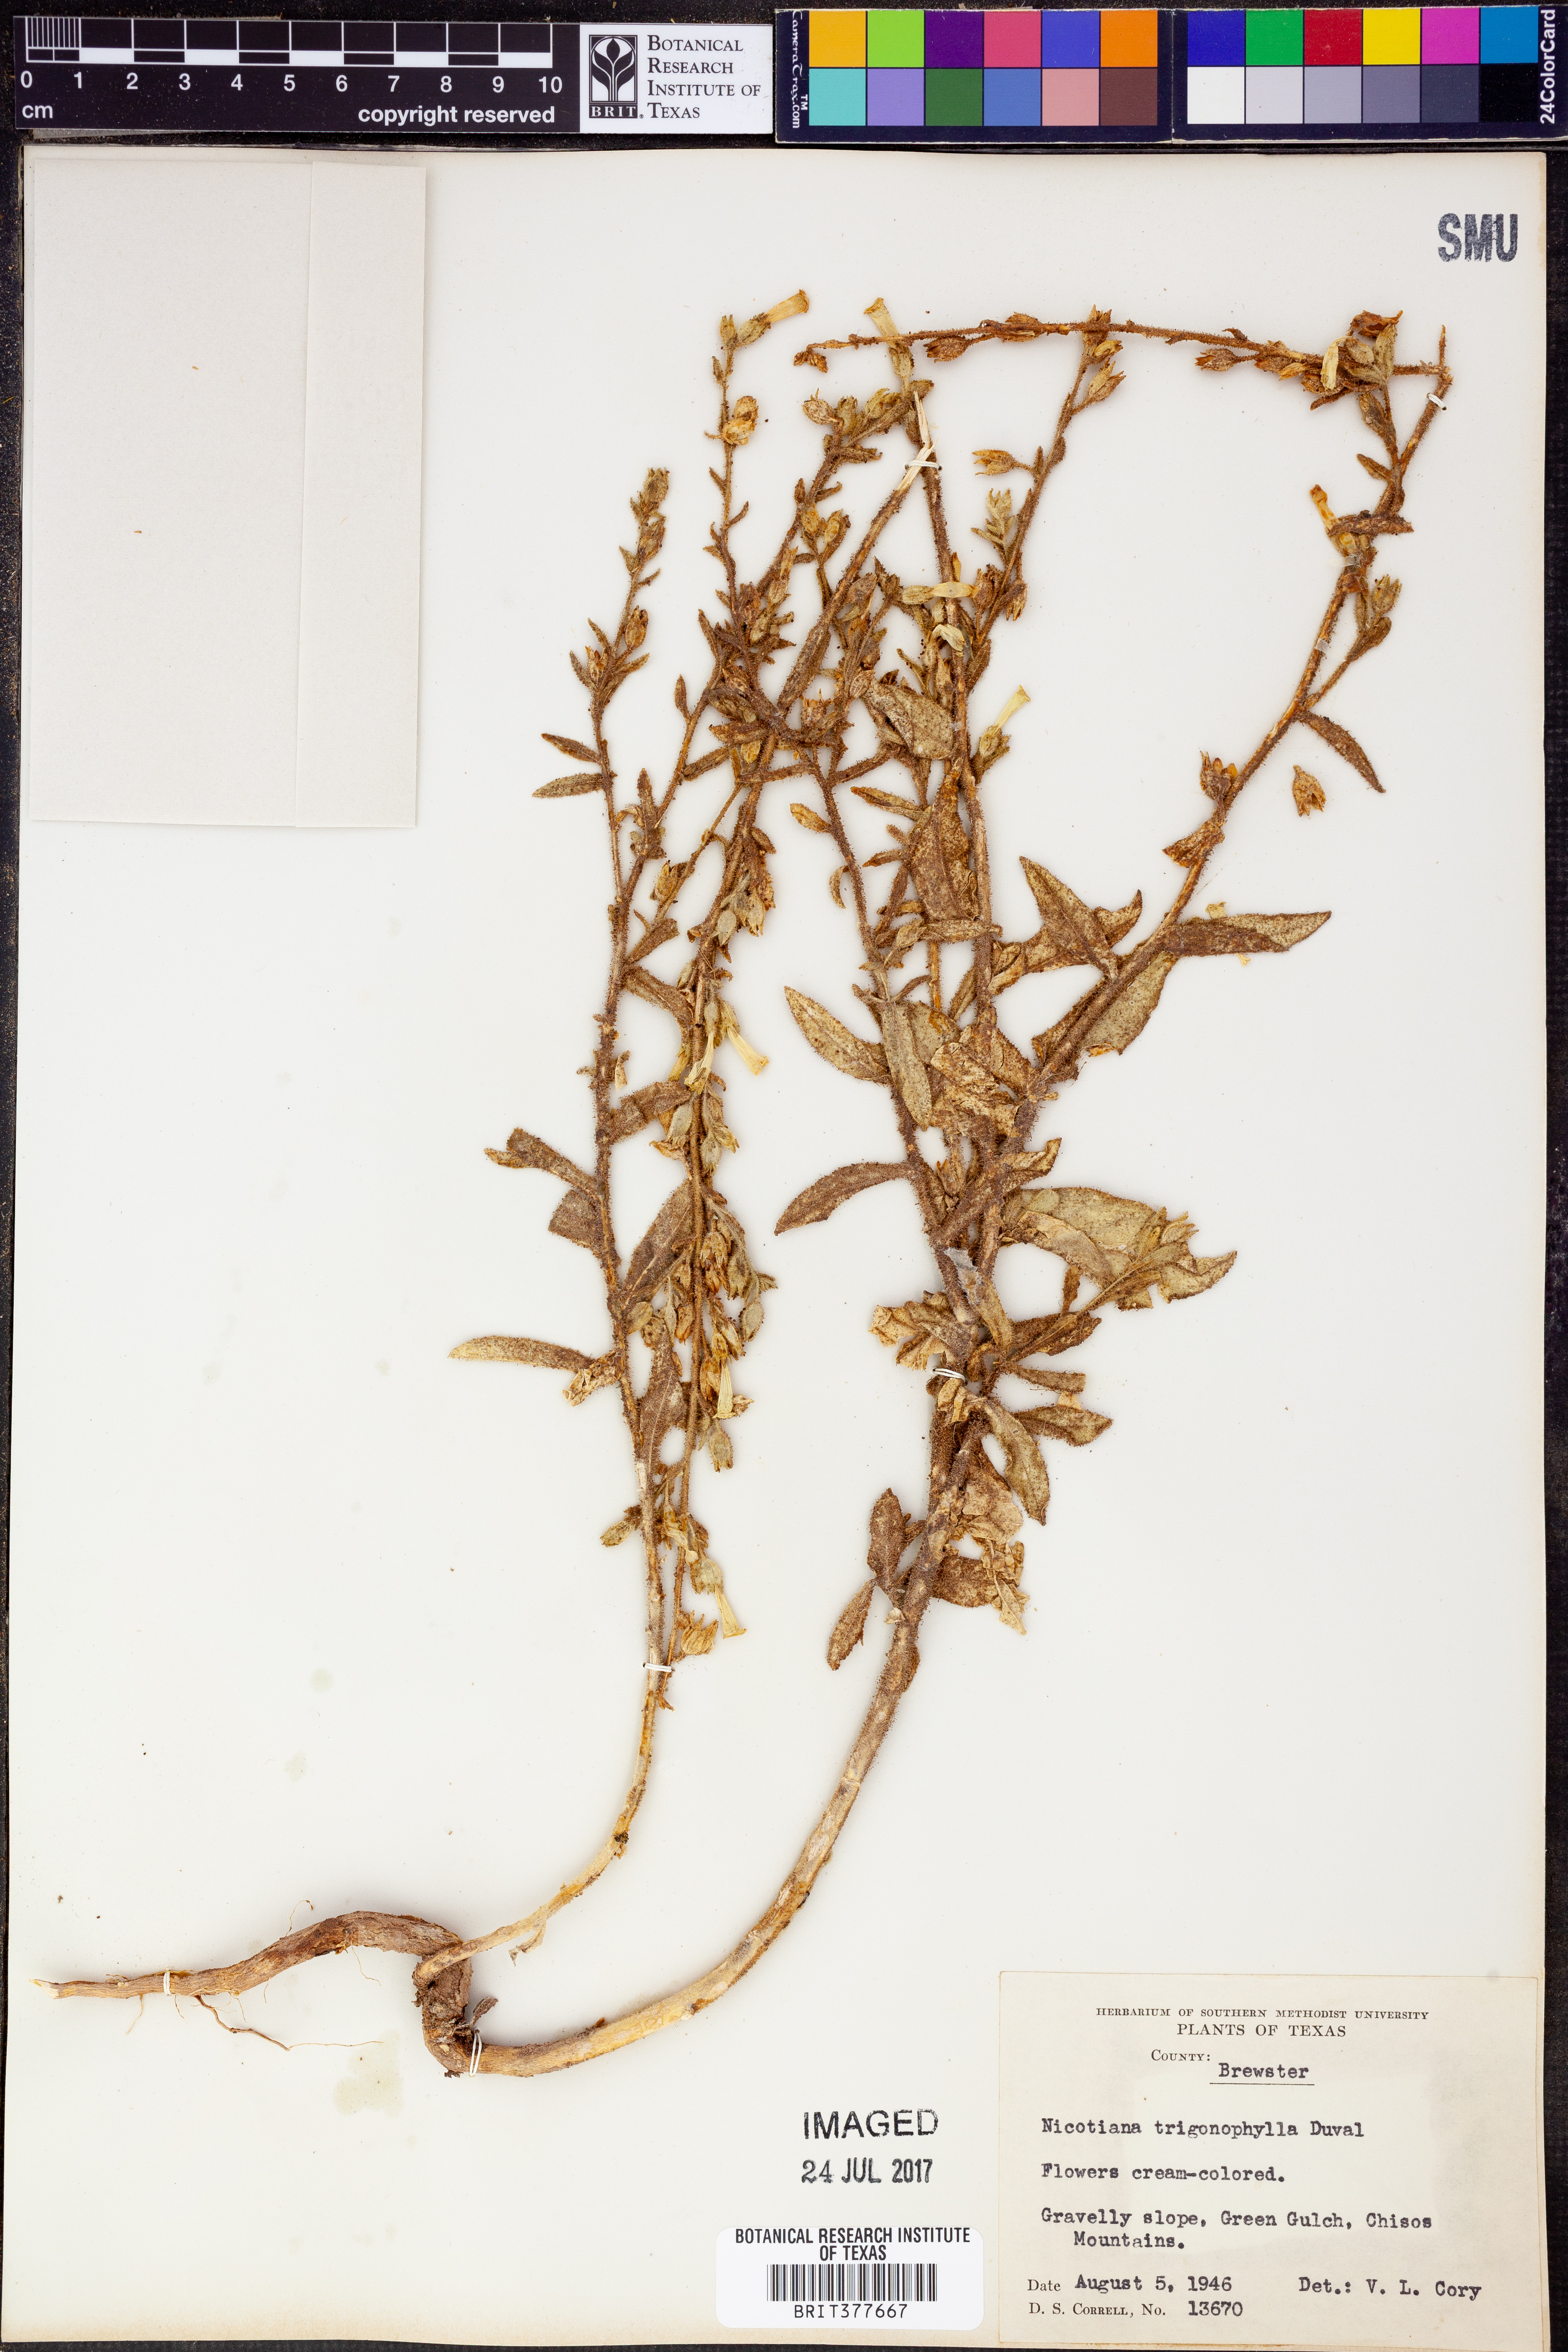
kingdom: Plantae
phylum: Tracheophyta
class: Magnoliopsida
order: Solanales
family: Solanaceae
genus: Nicotiana
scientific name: Nicotiana obtusifolia
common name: Desert tobacco
